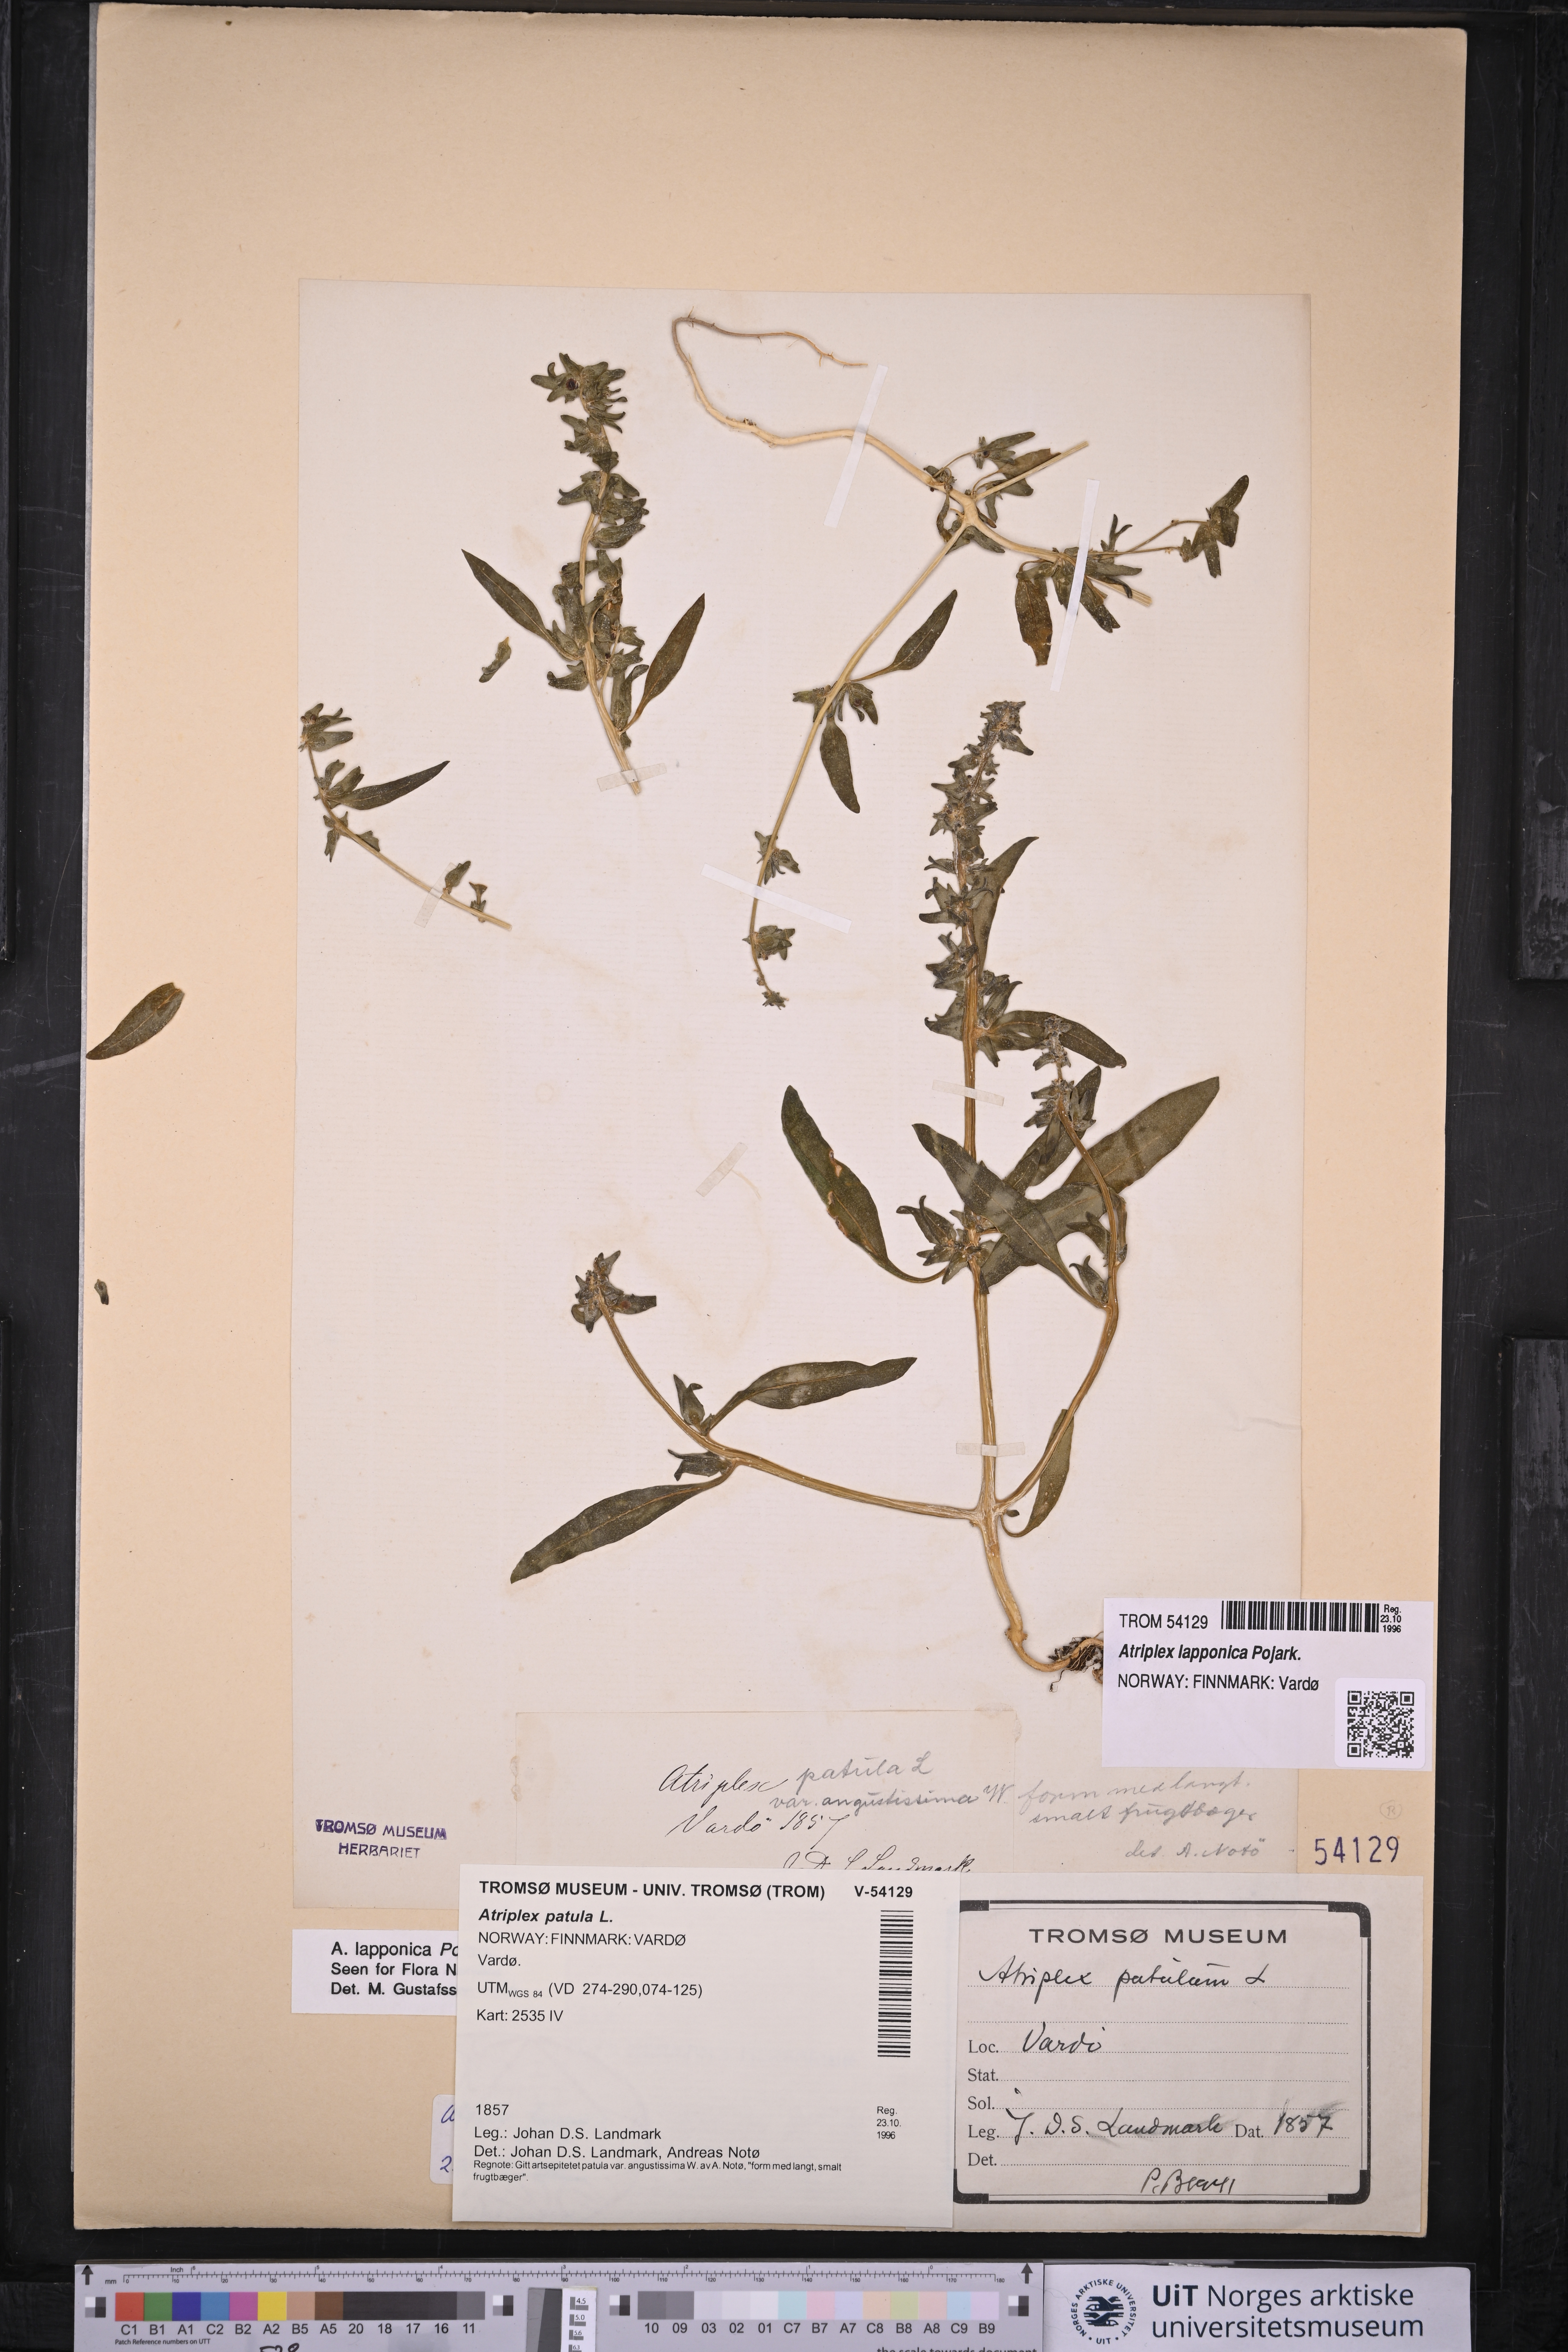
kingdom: Plantae
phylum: Tracheophyta
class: Magnoliopsida
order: Caryophyllales
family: Amaranthaceae
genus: Atriplex
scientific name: Atriplex nudicaulis
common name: Baltic orache
